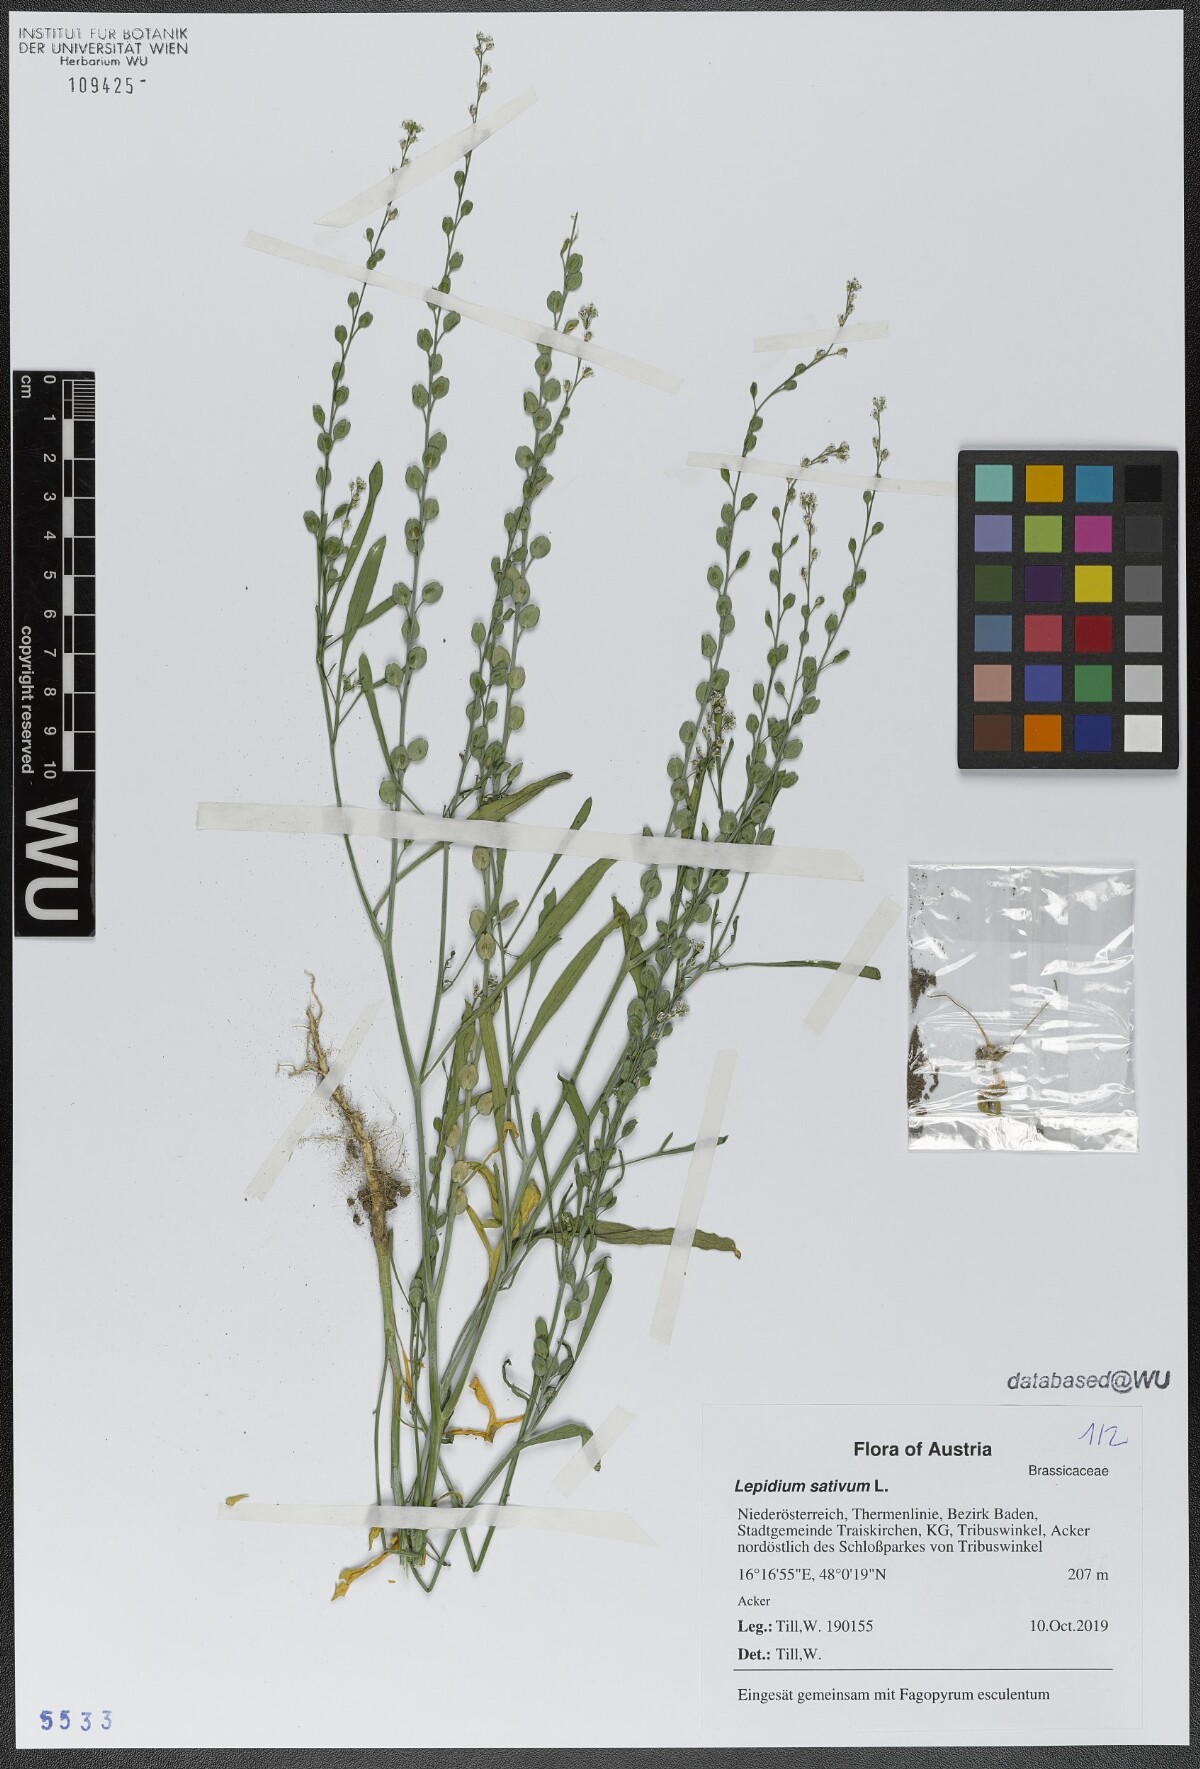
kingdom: Plantae
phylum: Tracheophyta
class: Magnoliopsida
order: Brassicales
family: Brassicaceae
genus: Lepidium
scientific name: Lepidium sativum
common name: Garden cress
